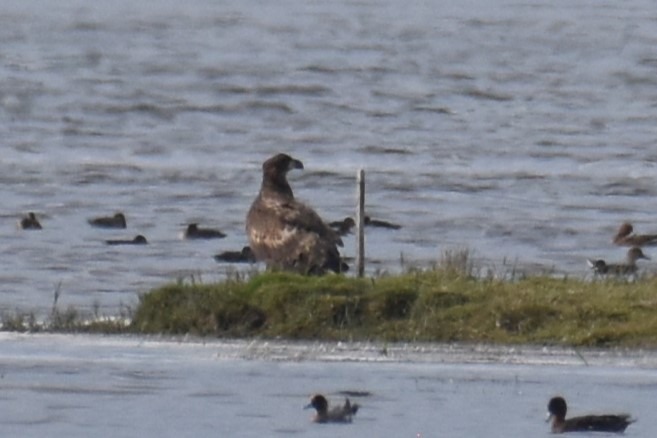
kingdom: Animalia
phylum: Chordata
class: Aves
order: Accipitriformes
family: Accipitridae
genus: Haliaeetus
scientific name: Haliaeetus albicilla
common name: Havørn
